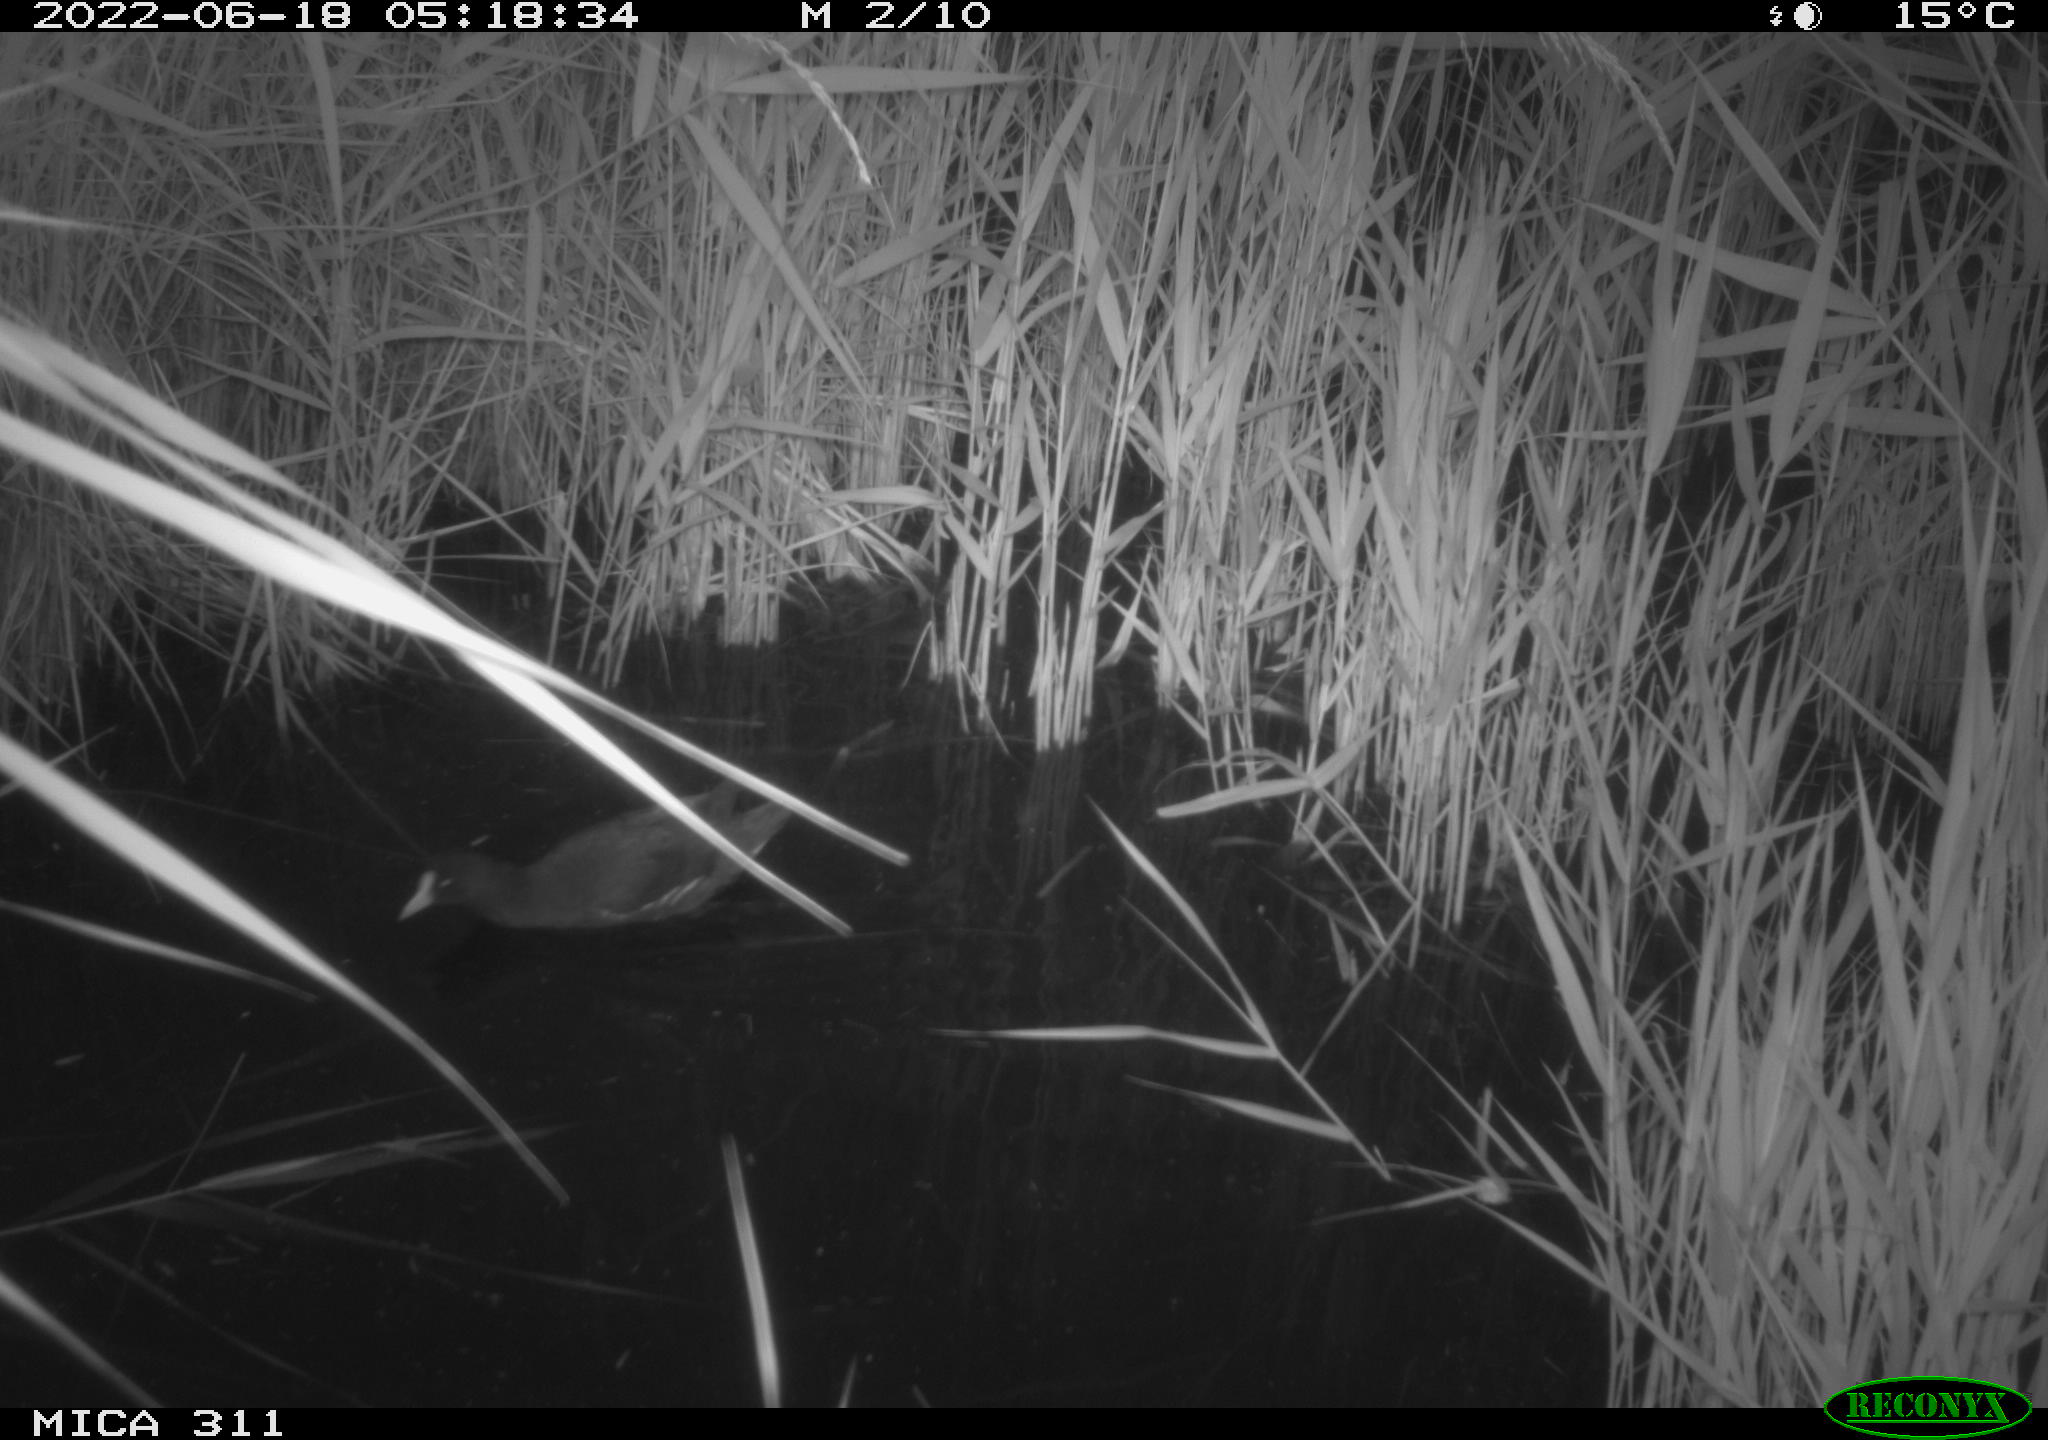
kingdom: Animalia
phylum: Chordata
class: Aves
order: Gruiformes
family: Rallidae
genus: Gallinula
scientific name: Gallinula chloropus
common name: Common moorhen
